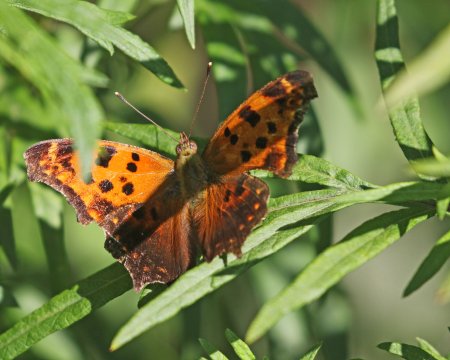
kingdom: Animalia
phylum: Arthropoda
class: Insecta
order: Lepidoptera
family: Nymphalidae
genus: Polygonia
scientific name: Polygonia comma
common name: Eastern Comma
